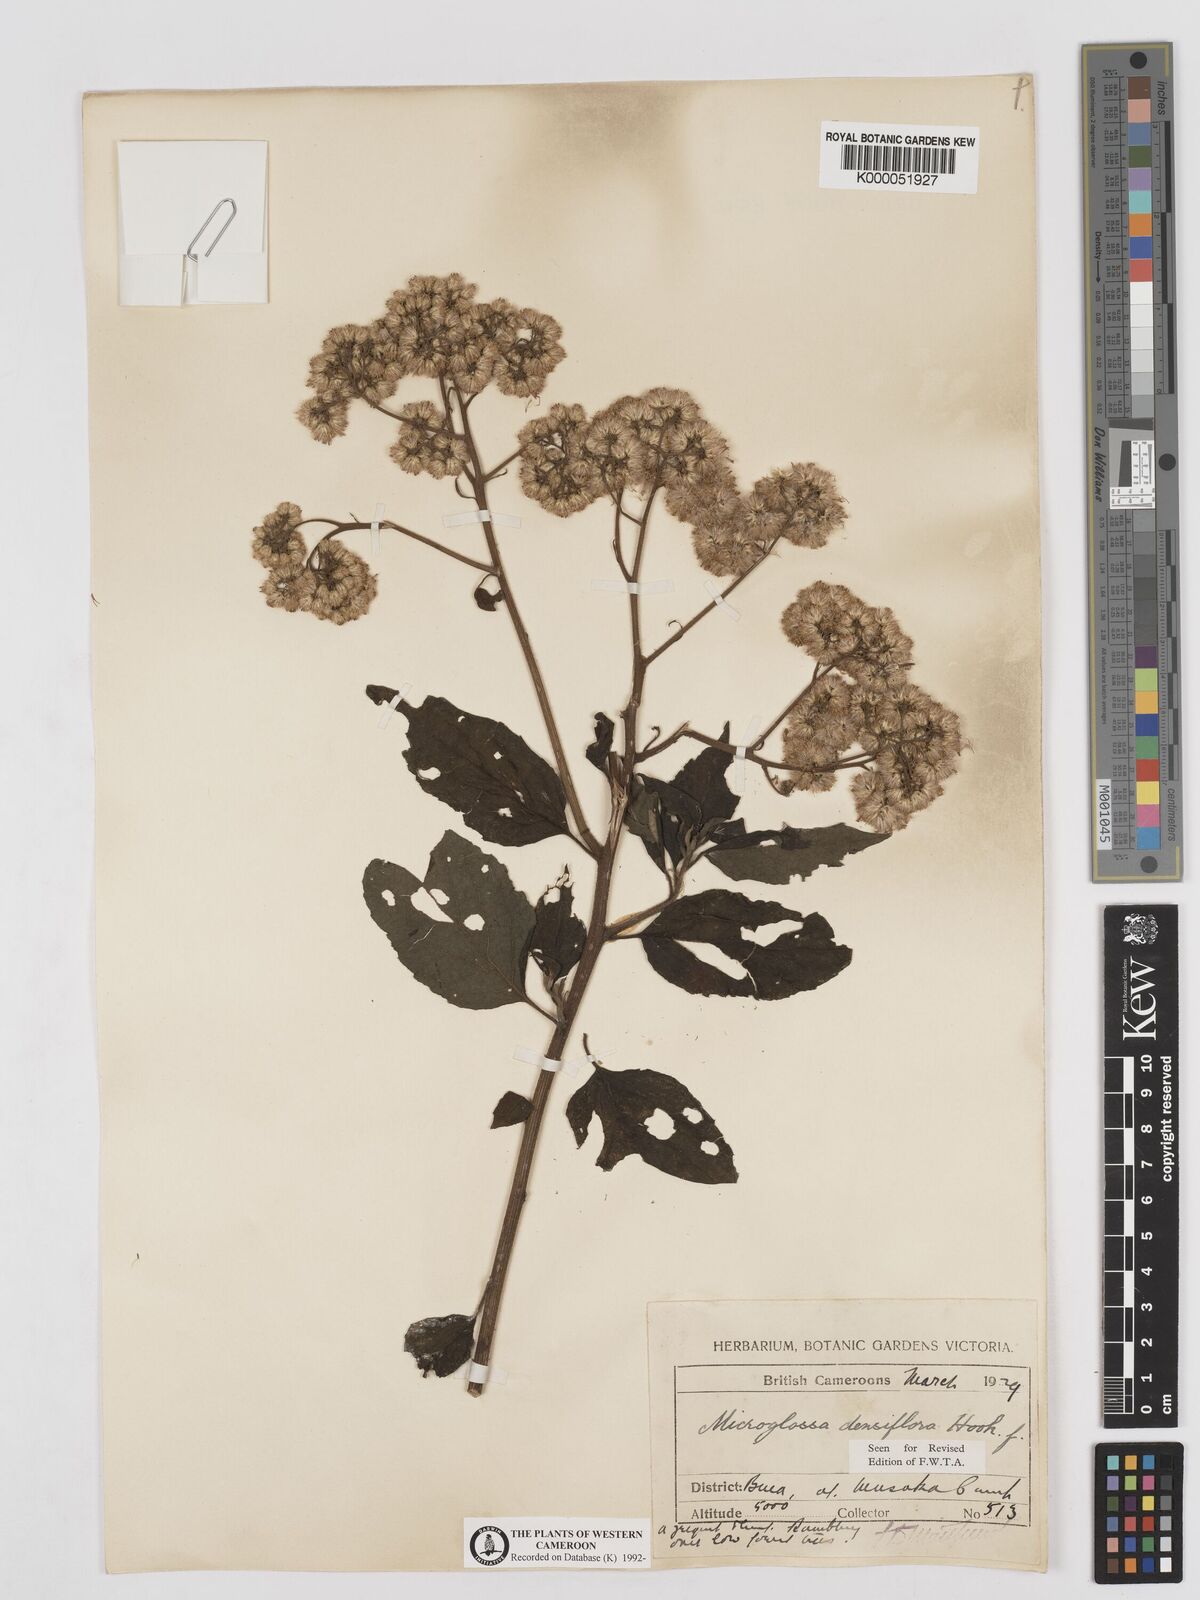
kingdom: Plantae
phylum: Tracheophyta
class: Magnoliopsida
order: Asterales
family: Asteraceae
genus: Microglossa
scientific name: Microglossa densiflora
